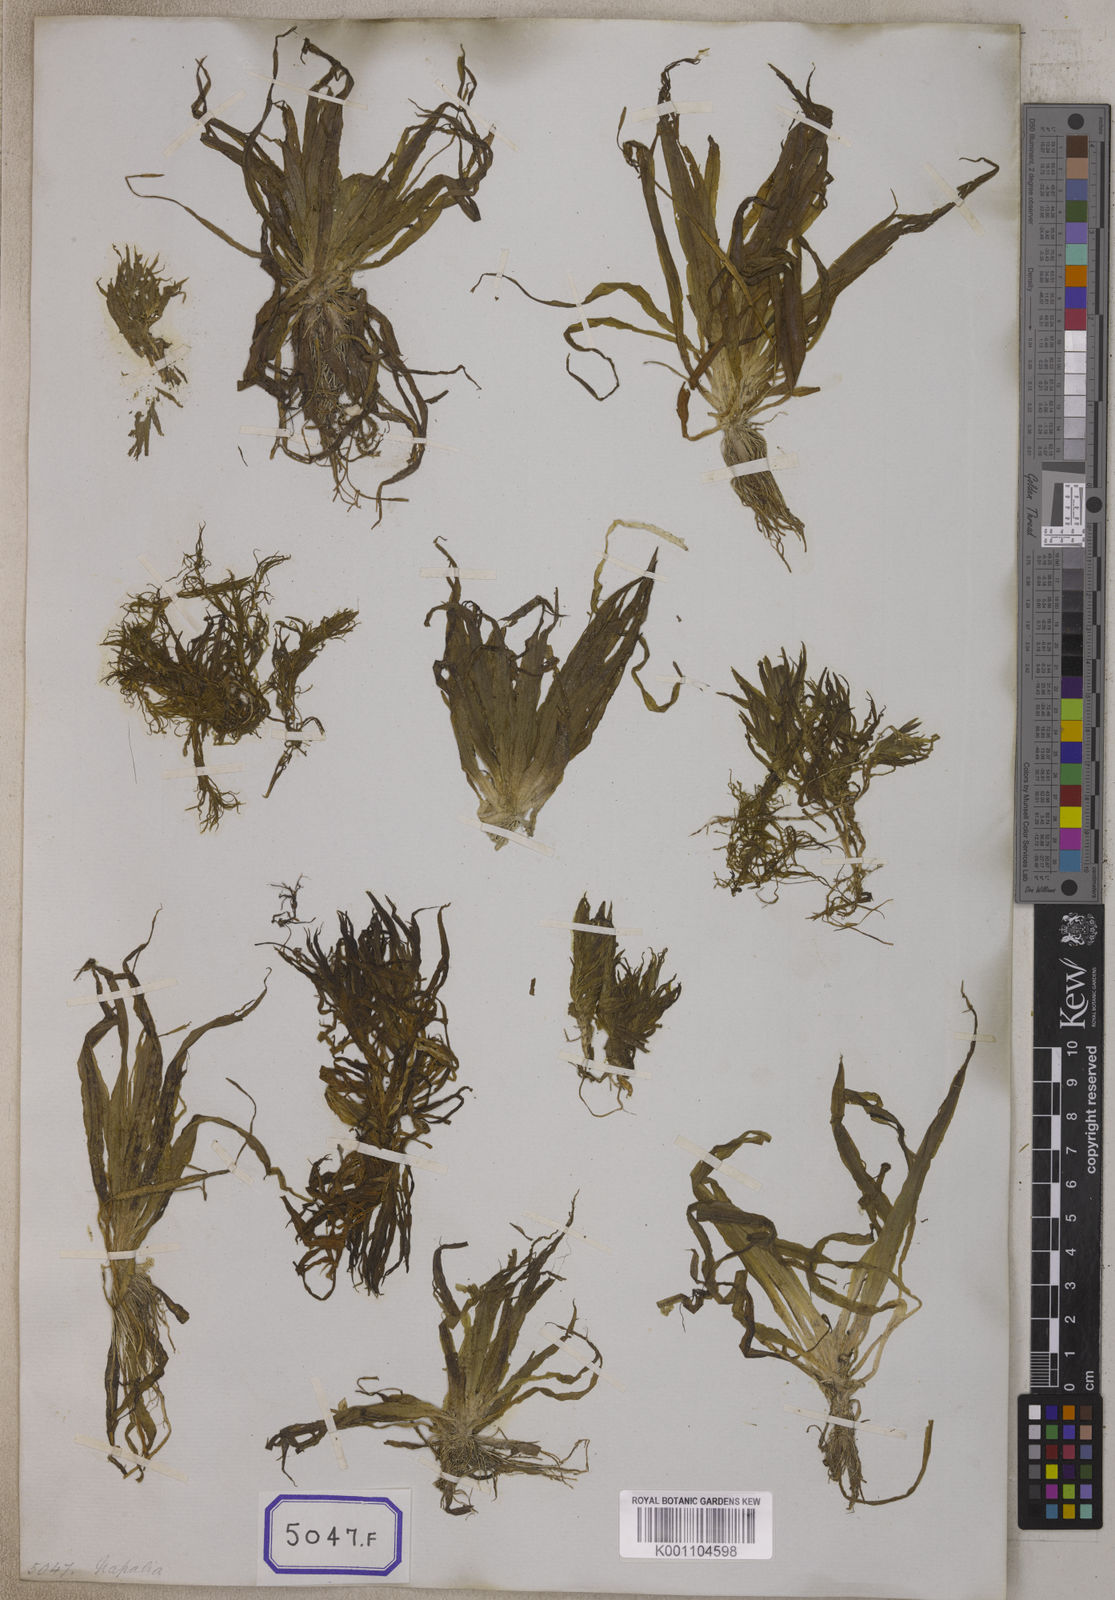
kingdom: Plantae
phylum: Tracheophyta
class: Liliopsida
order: Alismatales
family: Hydrocharitaceae
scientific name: Hydrocharitaceae
